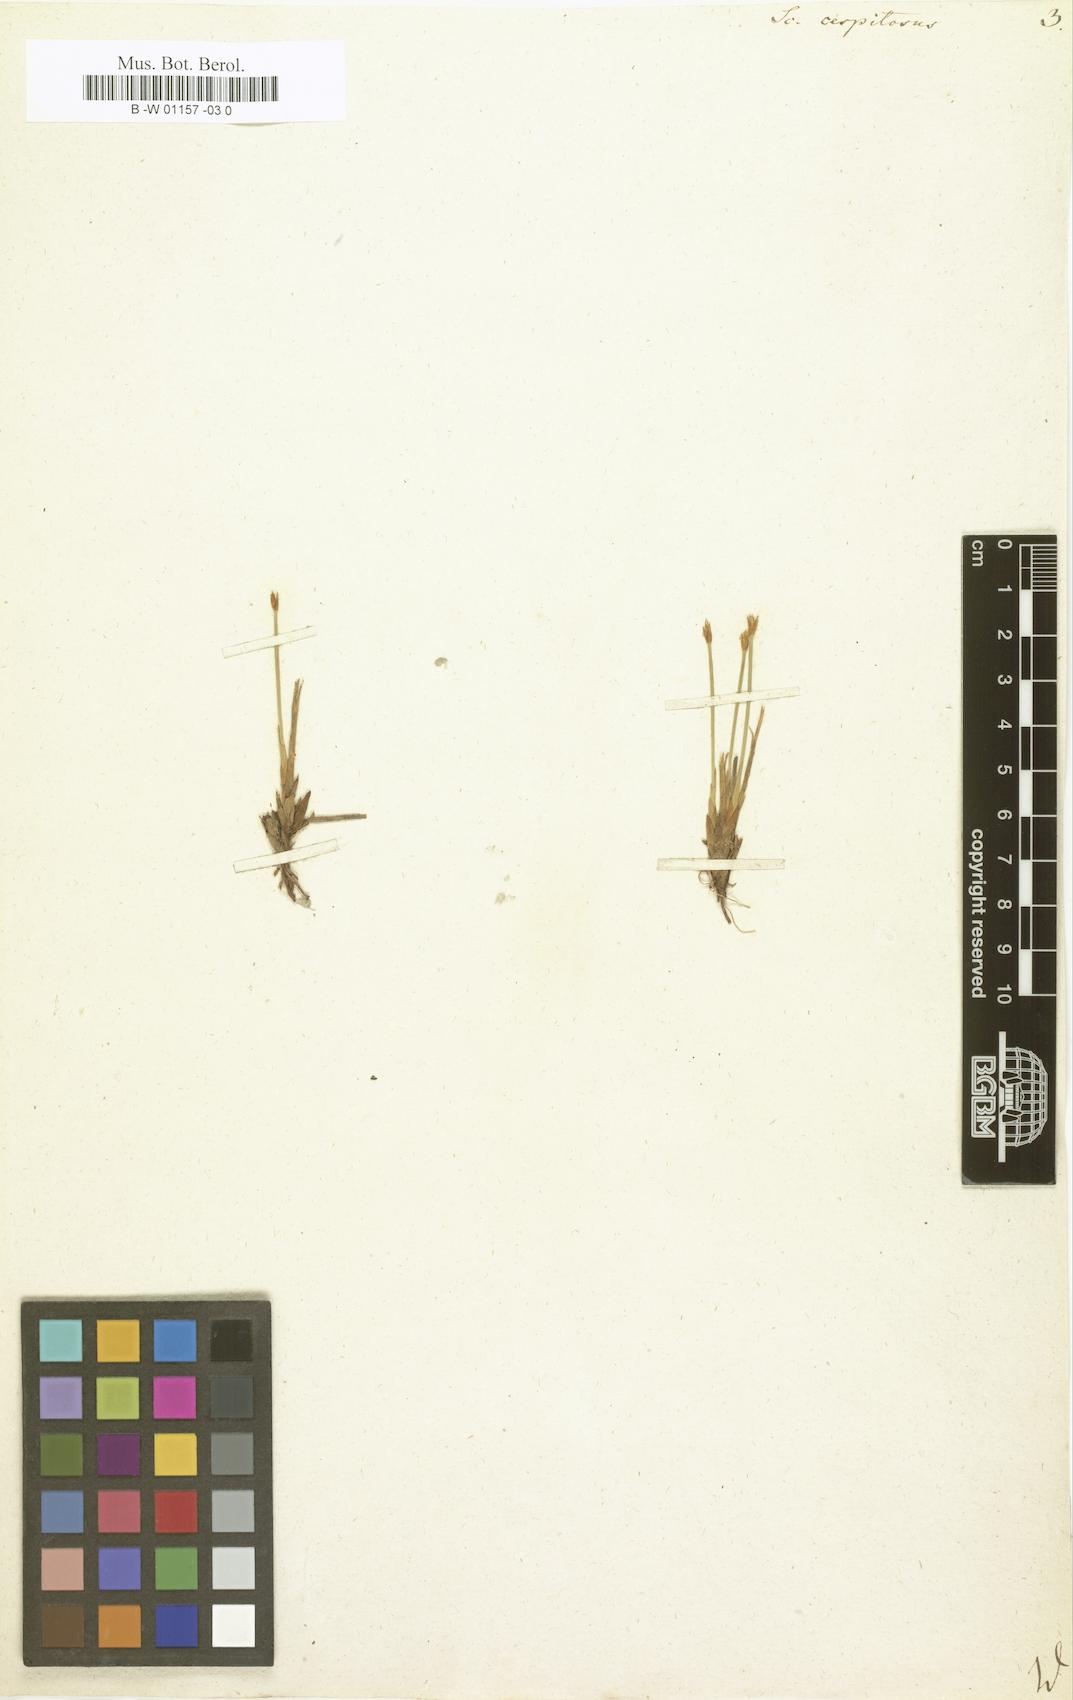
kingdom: Plantae
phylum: Tracheophyta
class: Liliopsida
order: Poales
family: Cyperaceae
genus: Trichophorum
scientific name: Trichophorum cespitosum
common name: Cespitose bulrush
